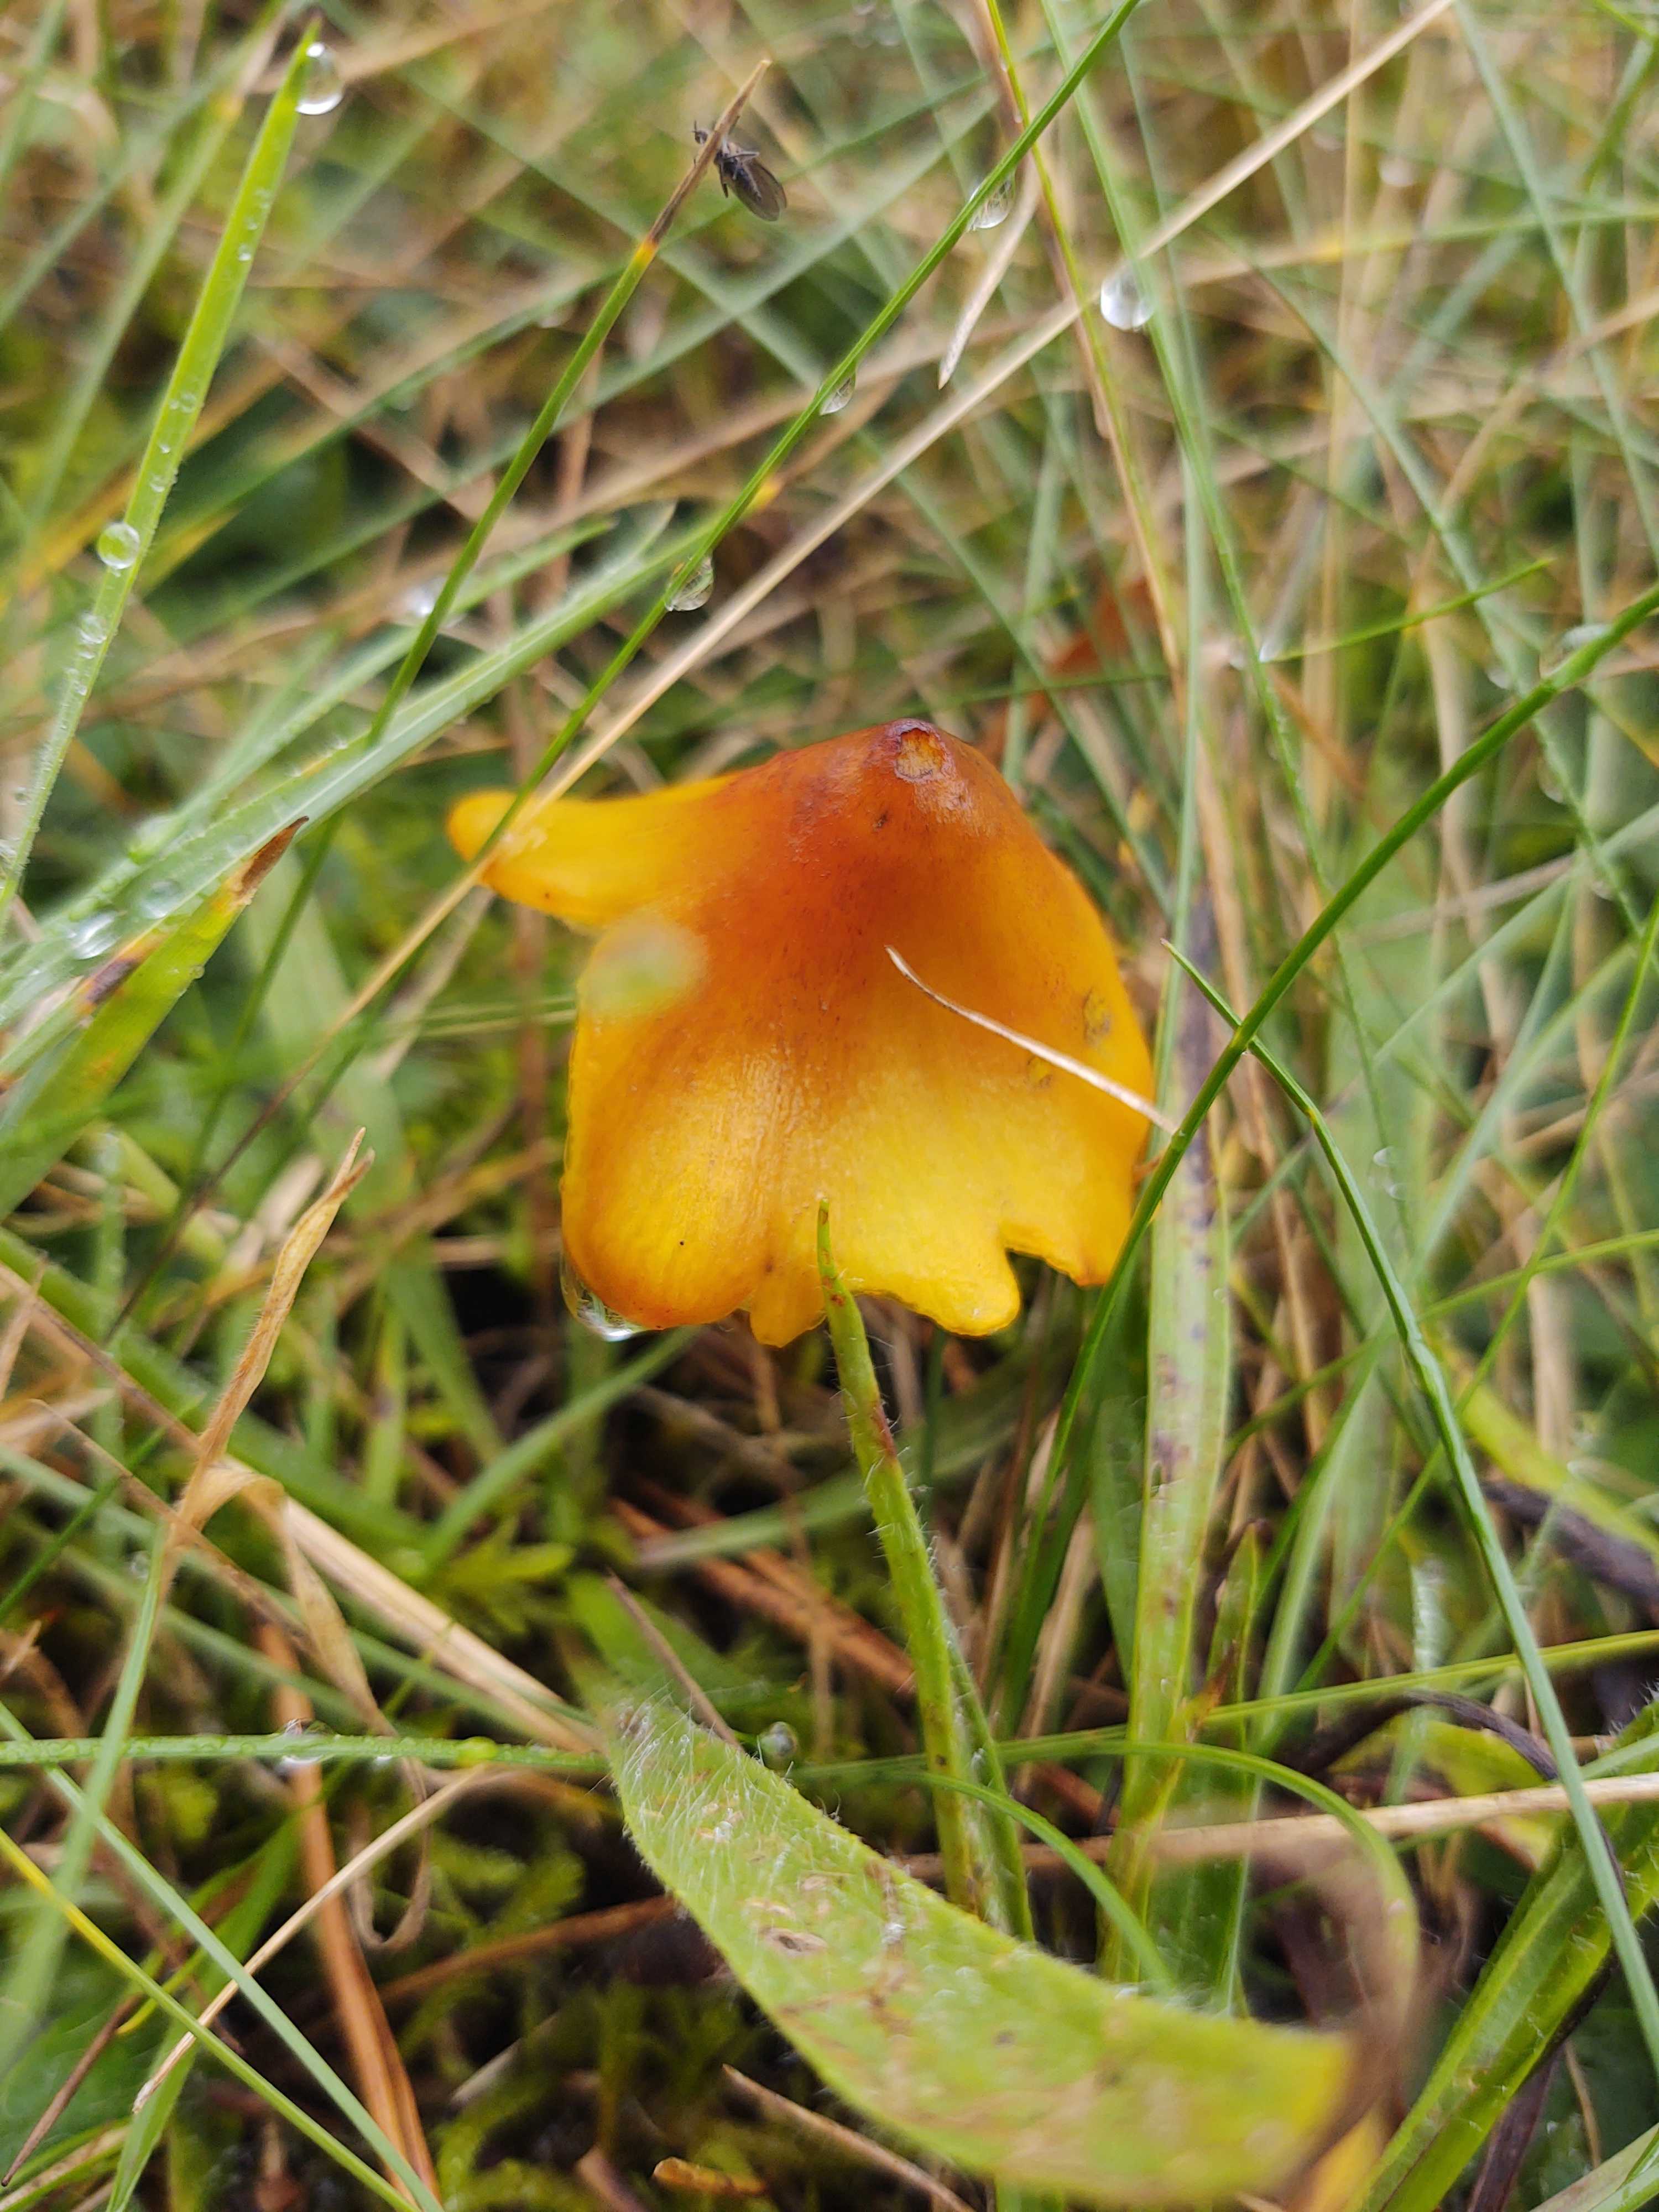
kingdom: Fungi
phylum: Basidiomycota
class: Agaricomycetes
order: Agaricales
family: Hygrophoraceae
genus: Hygrocybe
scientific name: Hygrocybe conica
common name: kegle-vokshat
